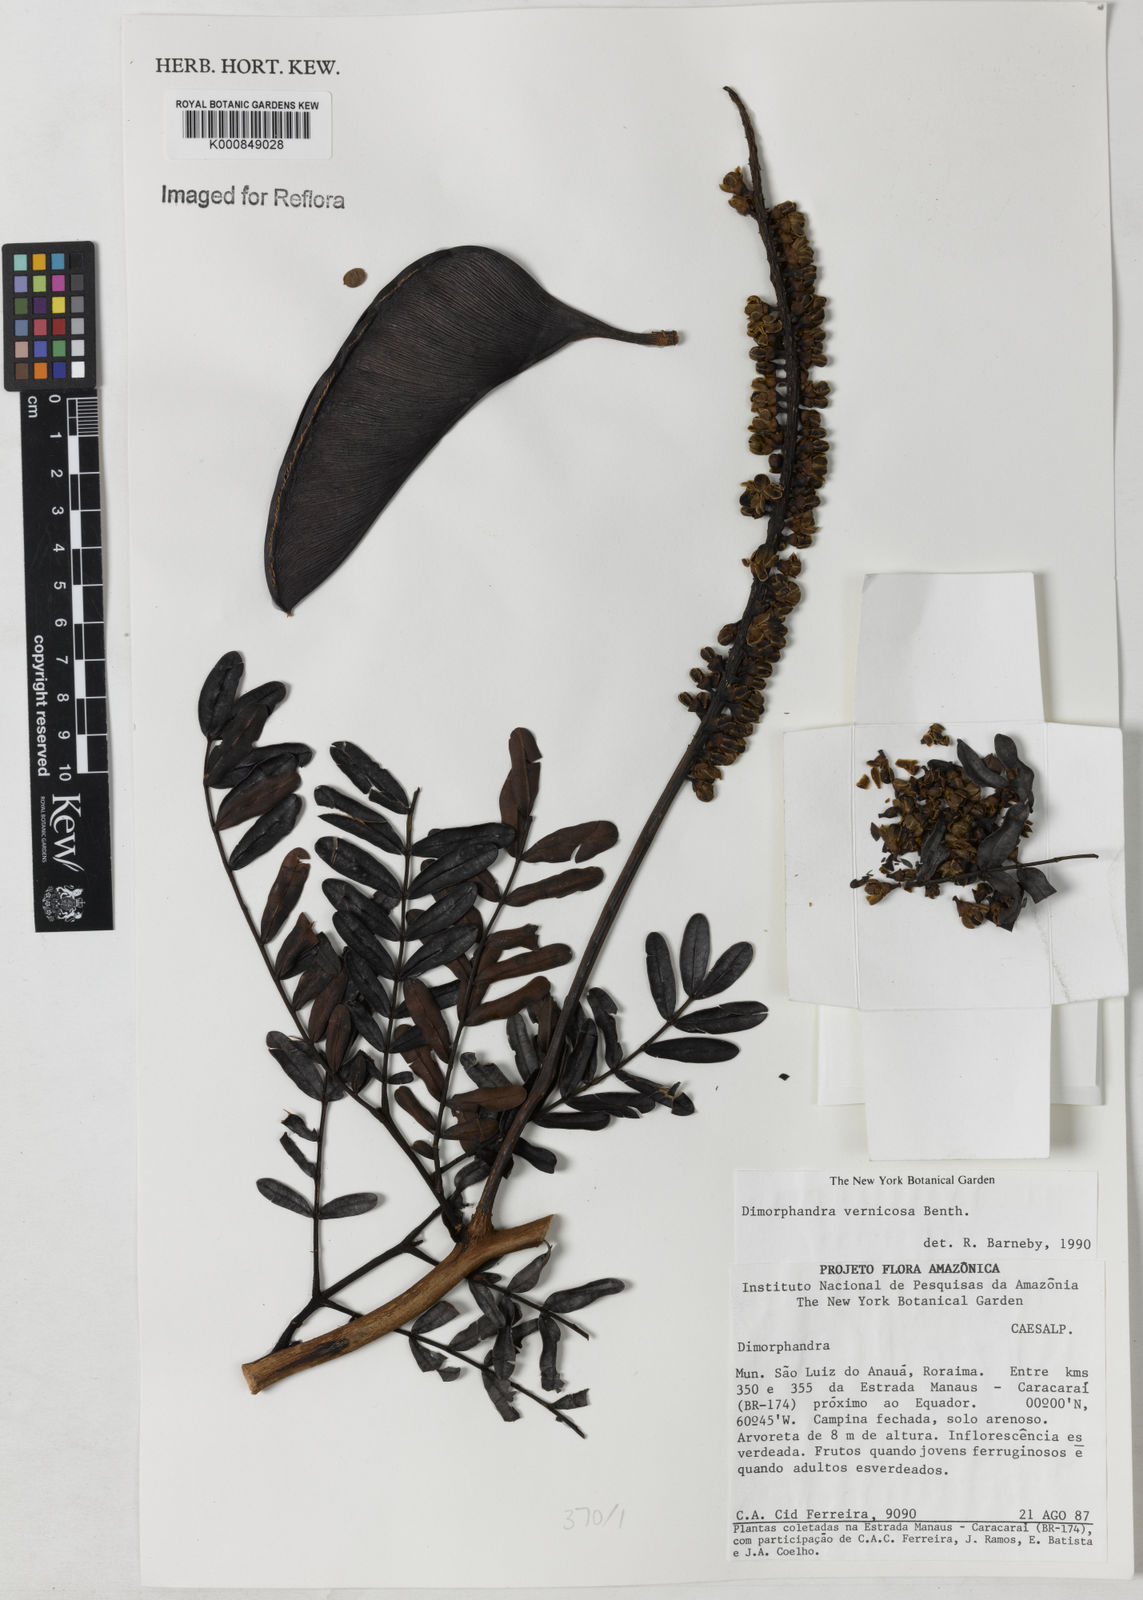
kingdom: Plantae
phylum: Tracheophyta
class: Magnoliopsida
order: Fabales
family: Fabaceae
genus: Dimorphandra
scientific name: Dimorphandra vernicosa
